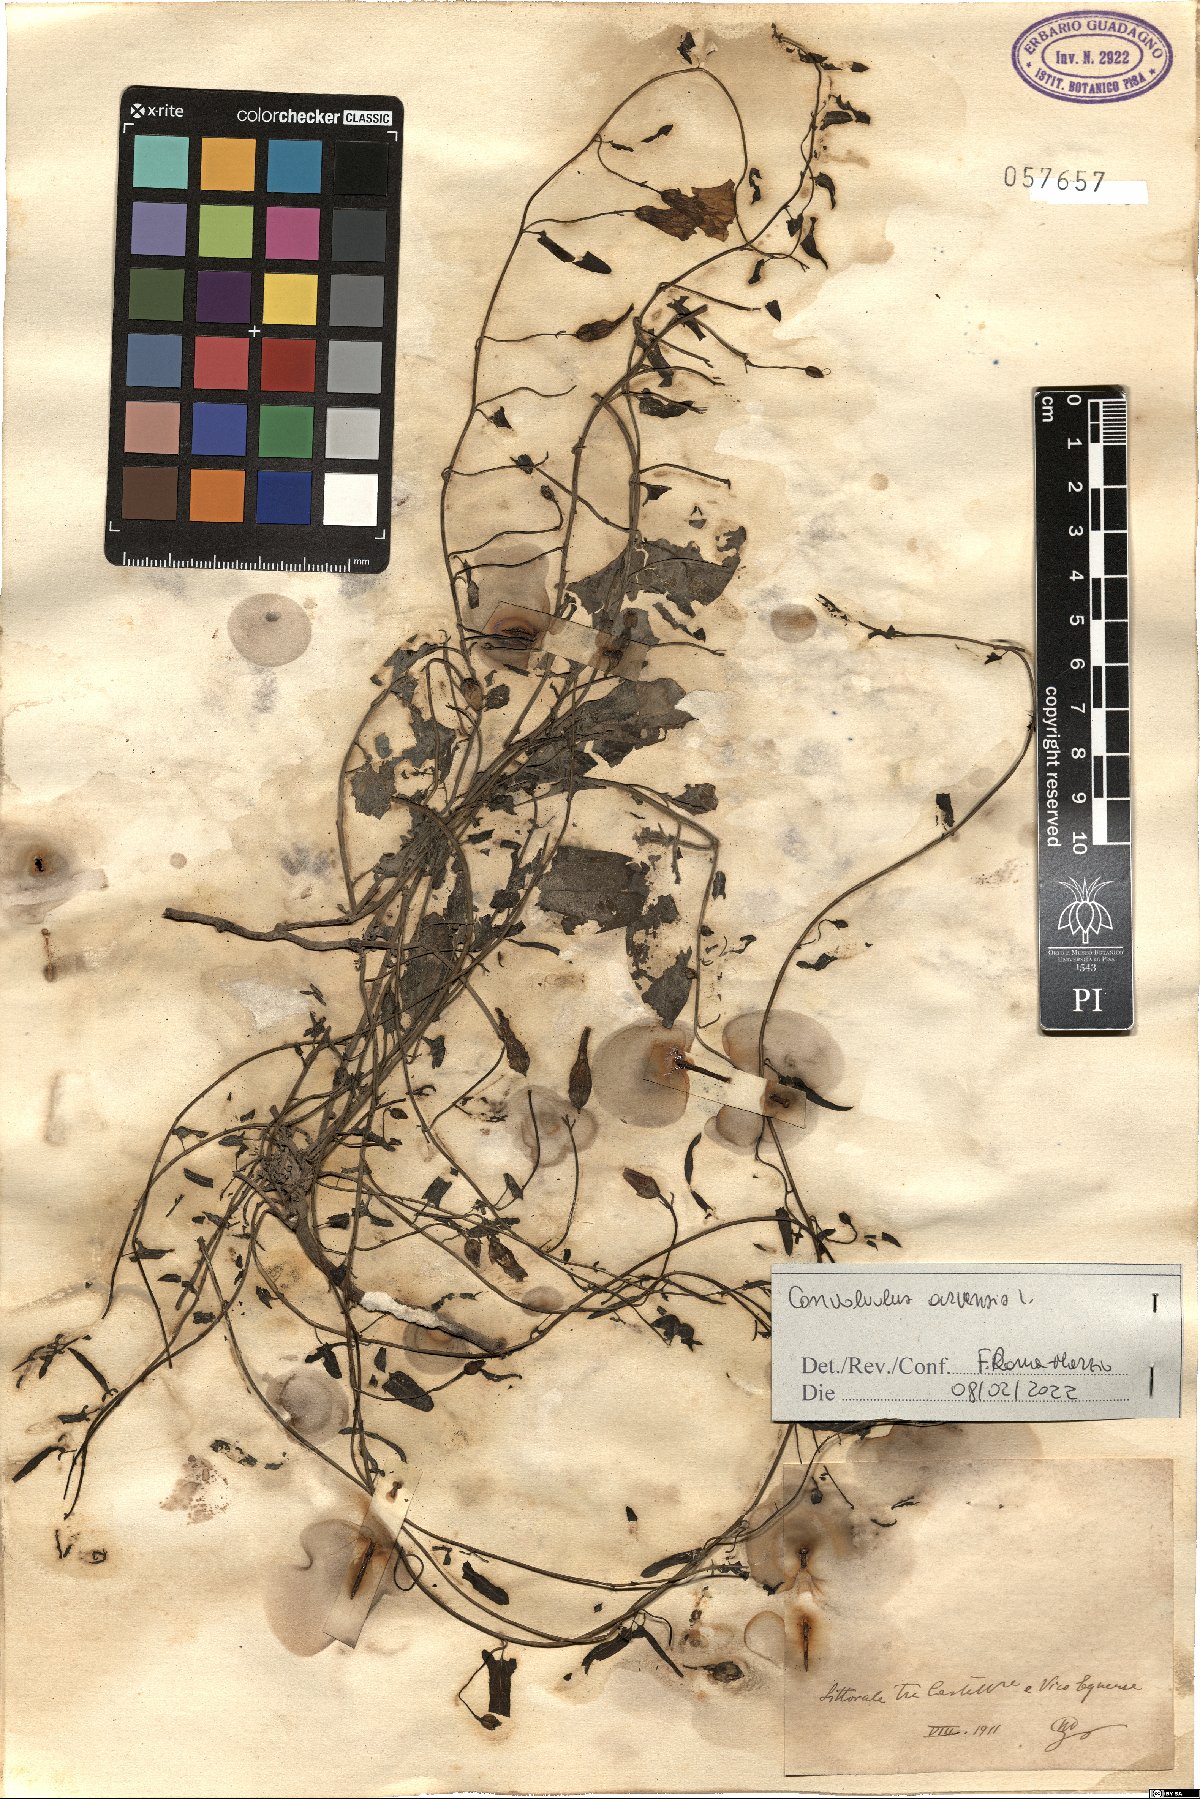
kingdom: Plantae
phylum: Tracheophyta
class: Magnoliopsida
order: Solanales
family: Convolvulaceae
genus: Convolvulus
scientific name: Convolvulus arvensis
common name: Field bindweed
